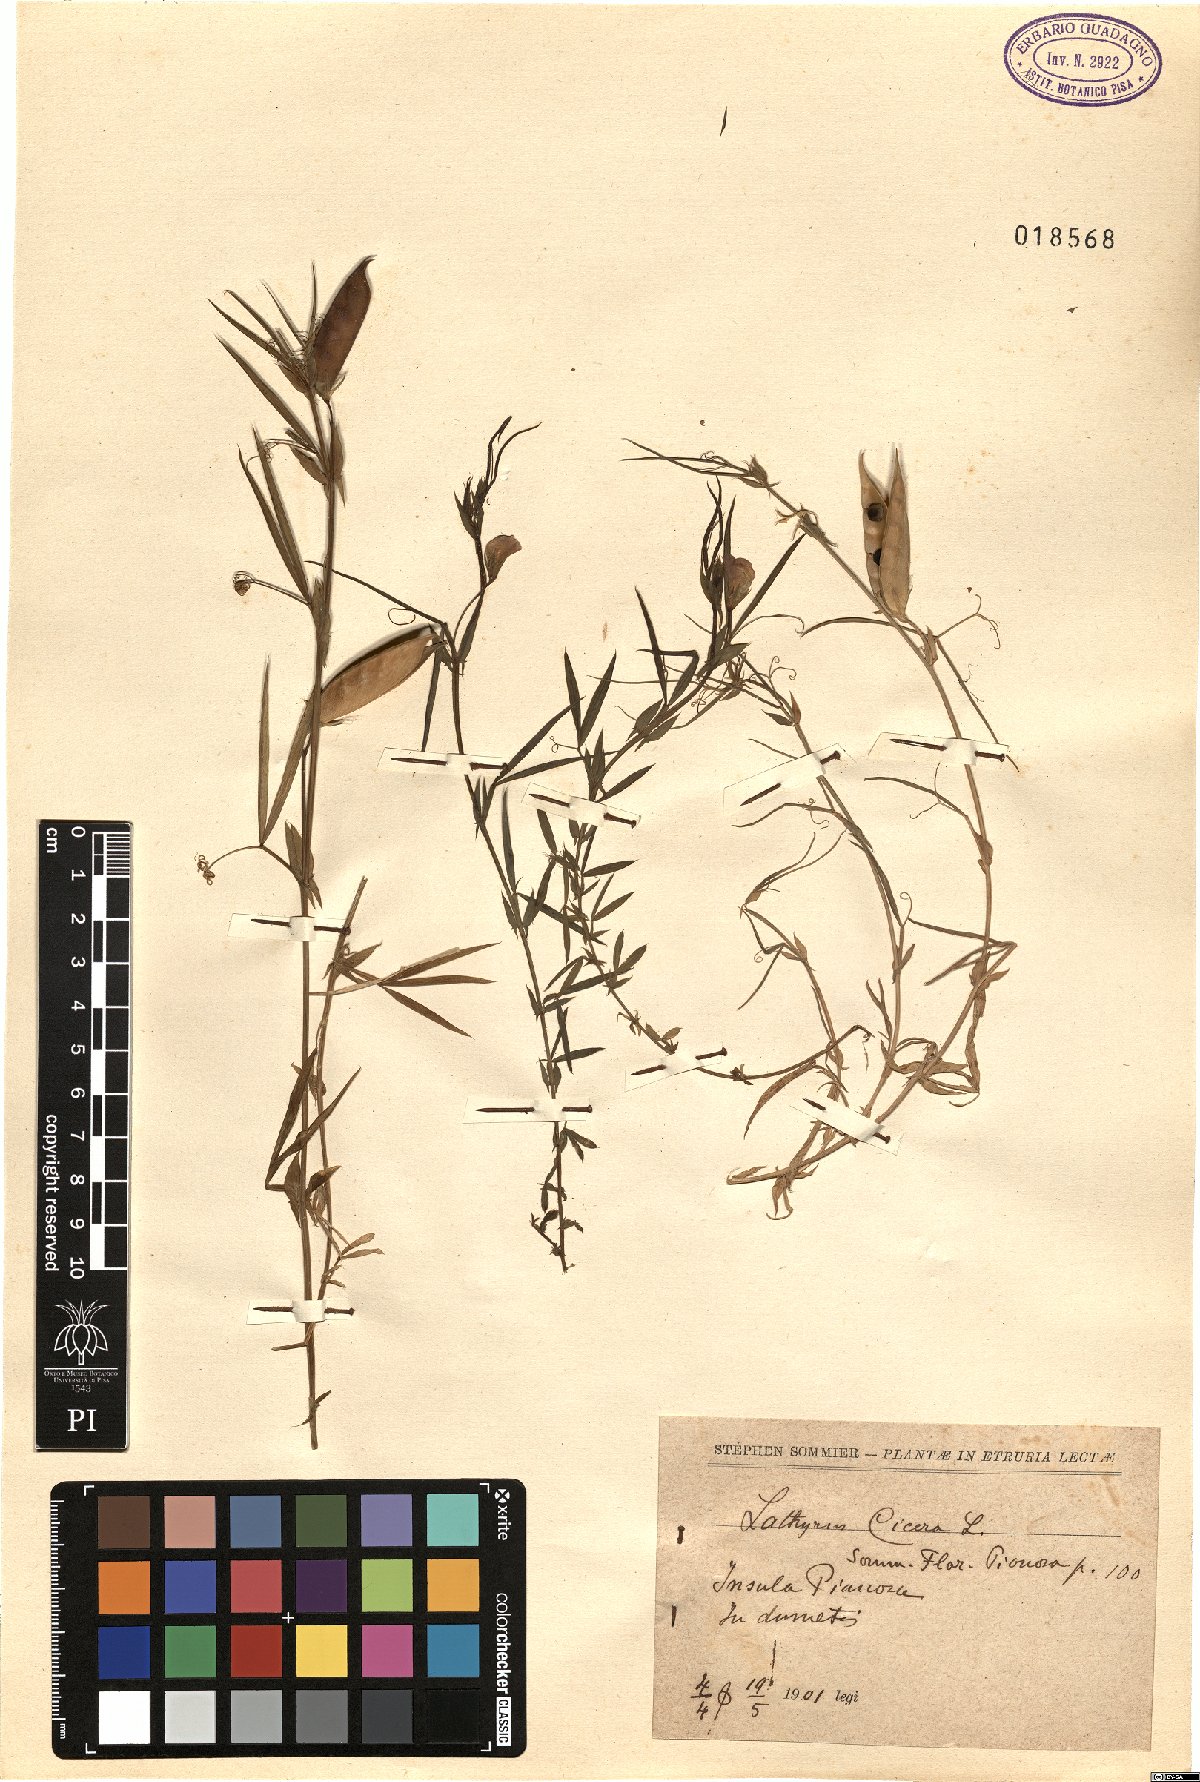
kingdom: Plantae
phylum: Tracheophyta
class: Magnoliopsida
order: Fabales
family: Fabaceae
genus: Lathyrus
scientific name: Lathyrus cicera
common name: Red vetchling
